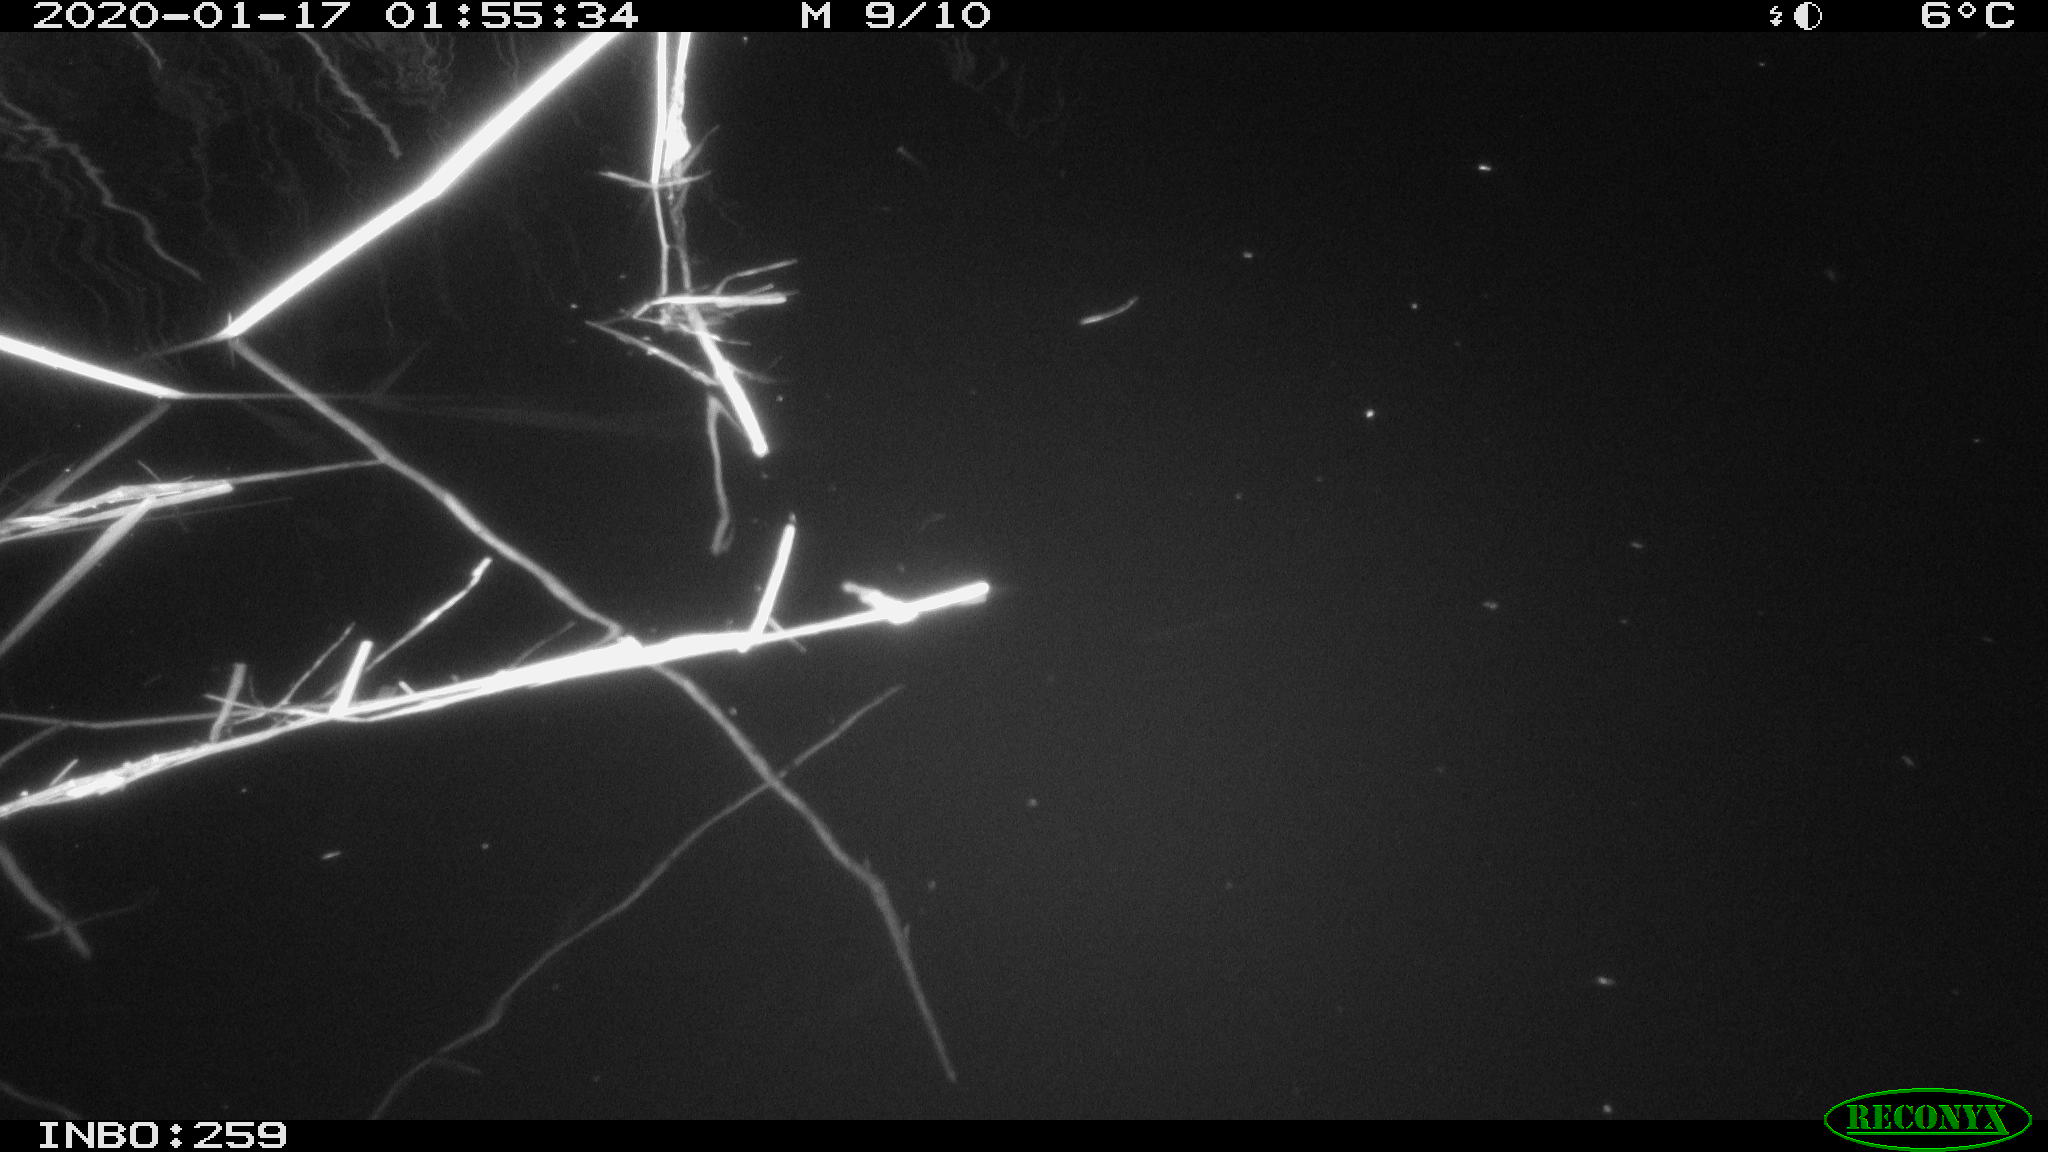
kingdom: Animalia
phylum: Chordata
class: Mammalia
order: Rodentia
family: Muridae
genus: Rattus
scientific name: Rattus norvegicus
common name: Brown rat
